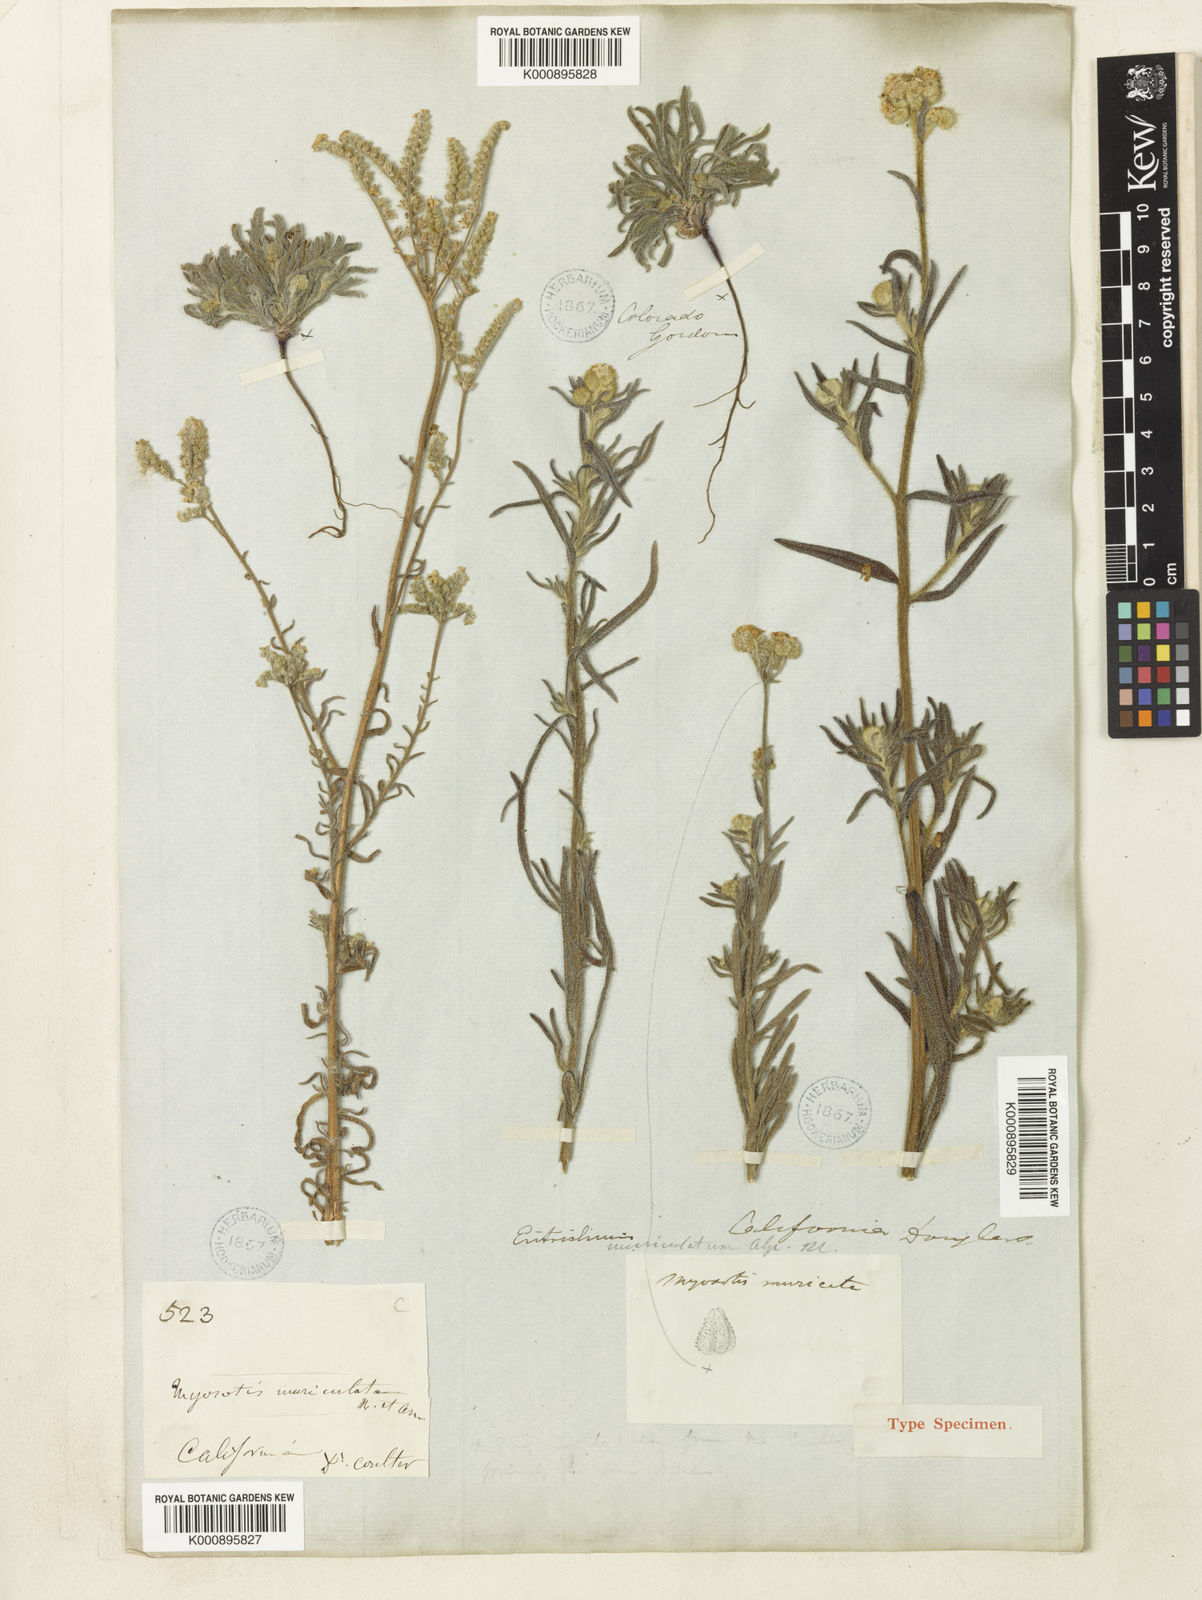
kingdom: Plantae
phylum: Tracheophyta
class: Magnoliopsida
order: Boraginales
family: Boraginaceae
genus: Cryptantha
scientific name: Cryptantha muricata
